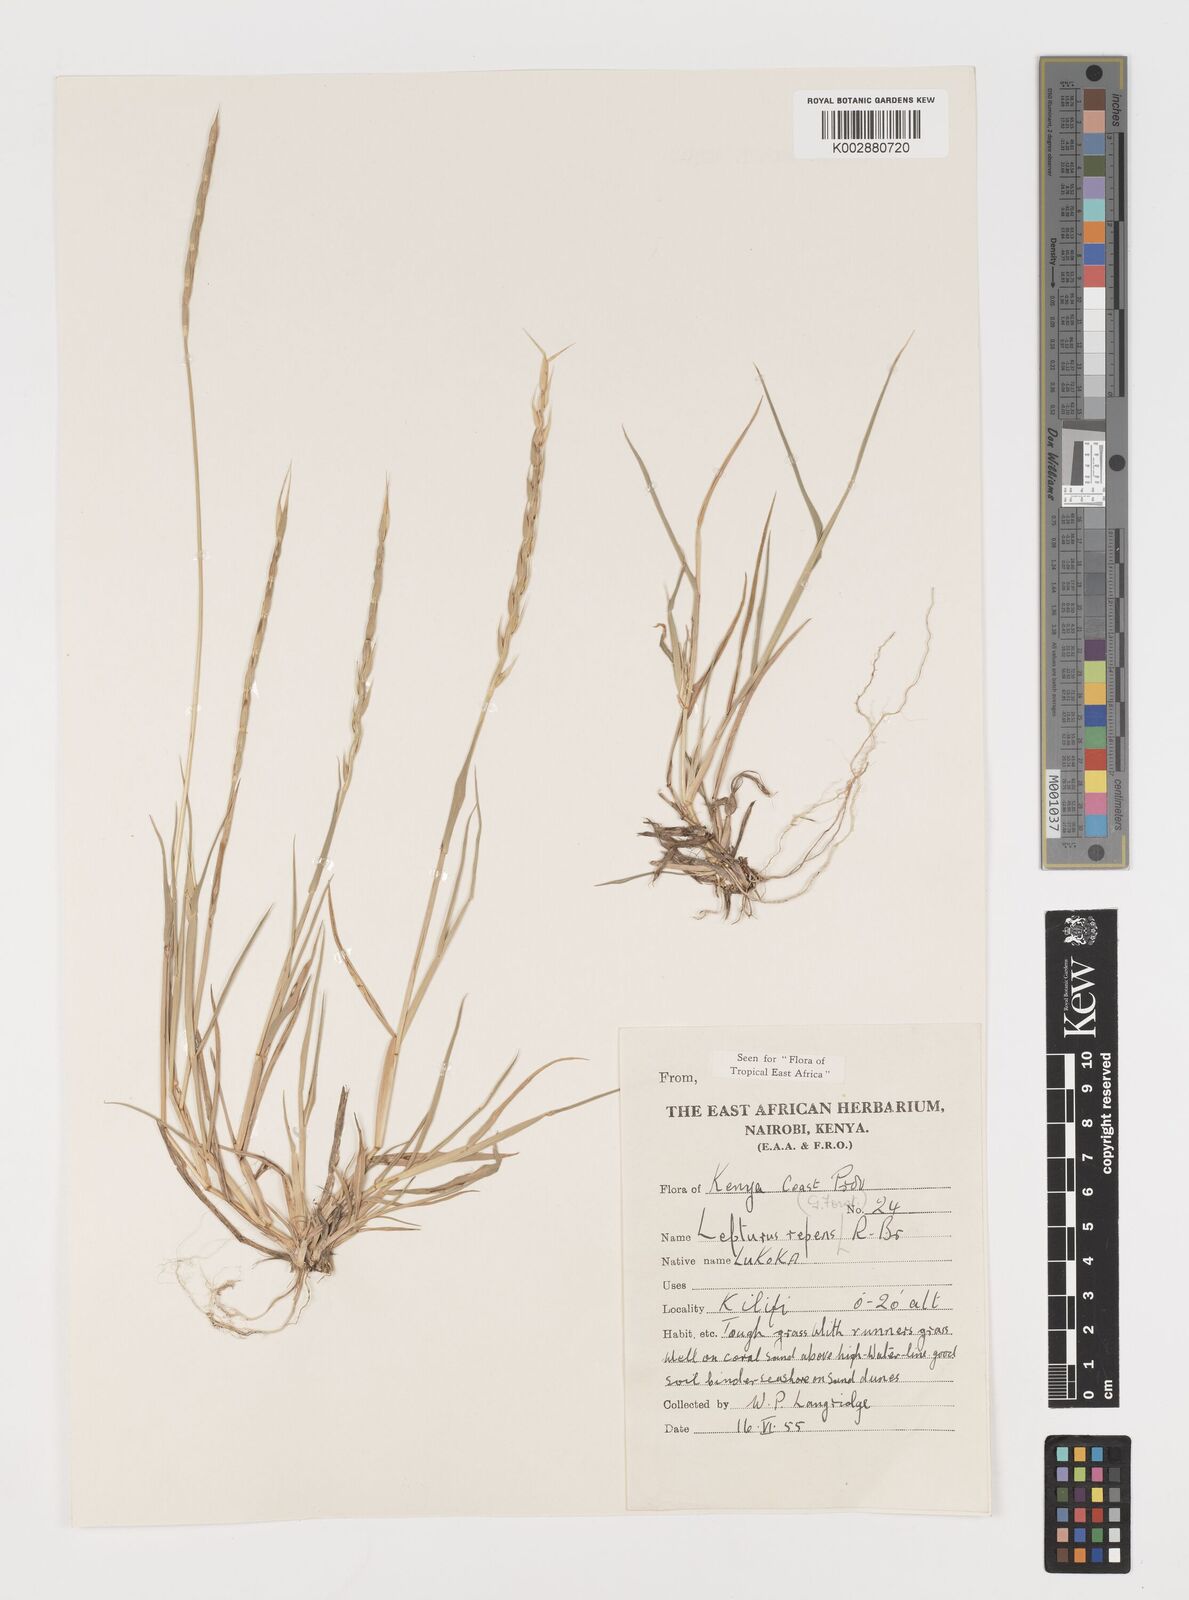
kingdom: Plantae
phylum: Tracheophyta
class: Liliopsida
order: Poales
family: Poaceae
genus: Lepturus
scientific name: Lepturus repens
